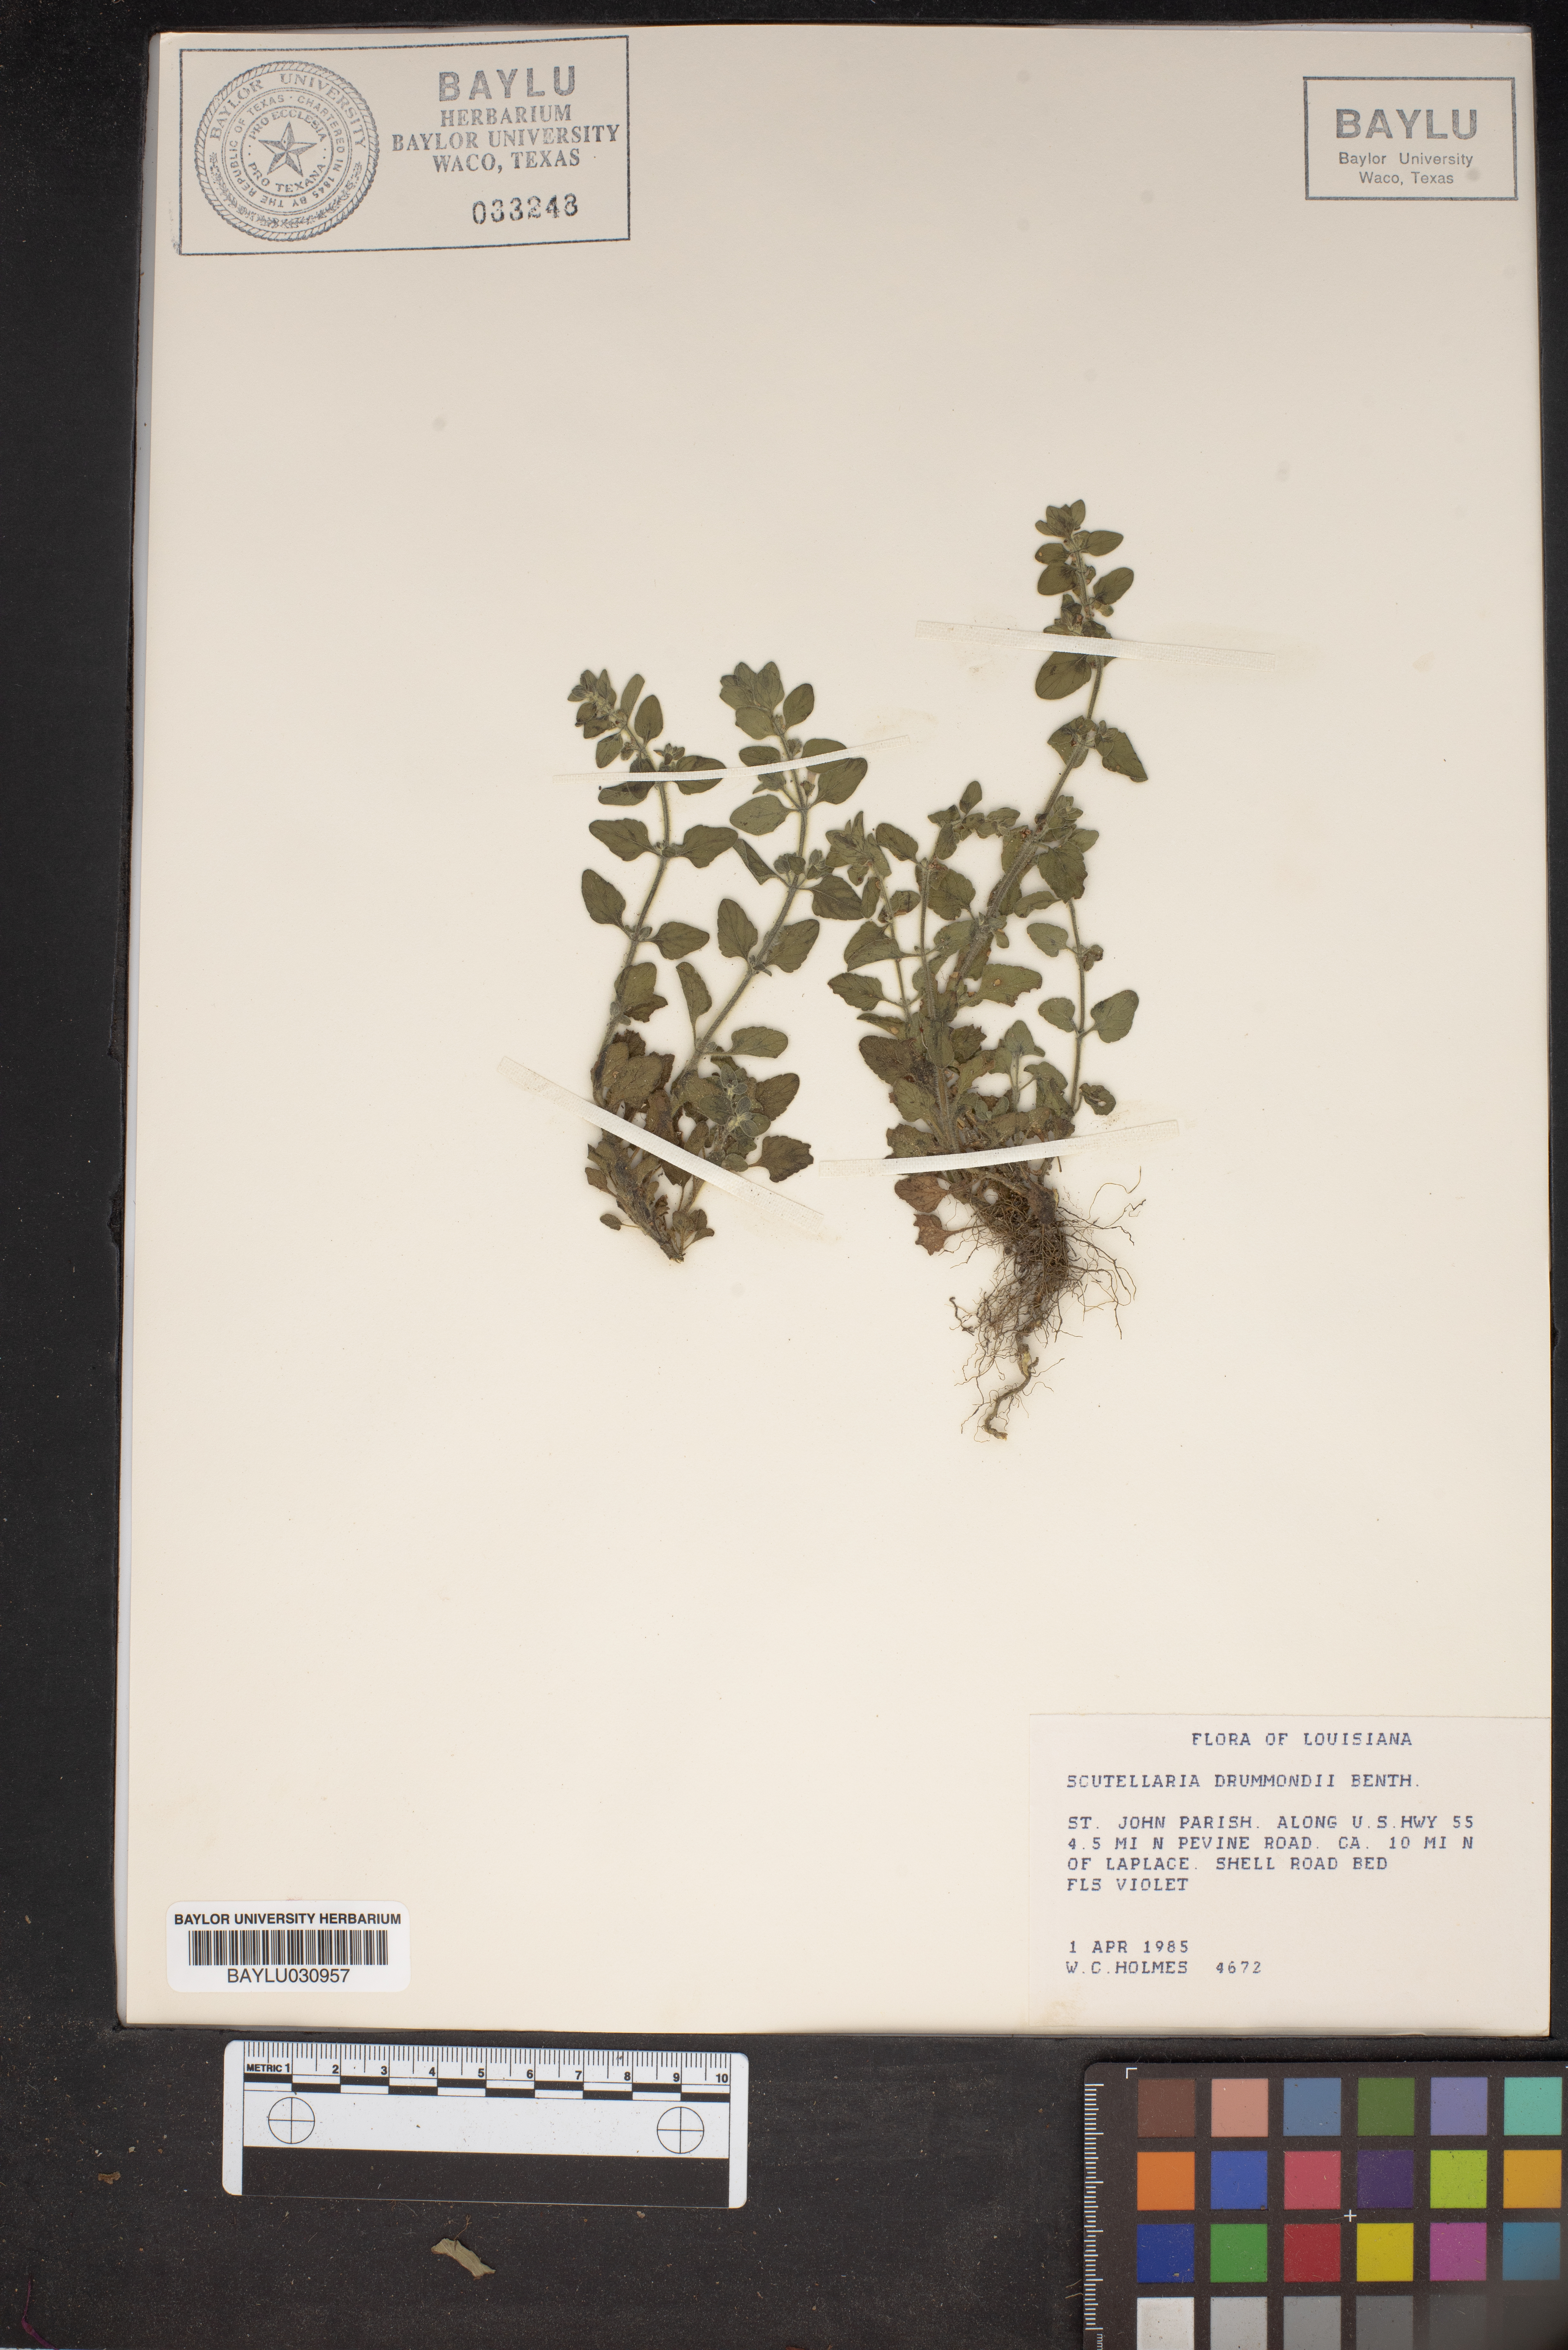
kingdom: Plantae
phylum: Tracheophyta
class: Magnoliopsida
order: Lamiales
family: Lamiaceae
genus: Scutellaria
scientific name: Scutellaria drummondii
